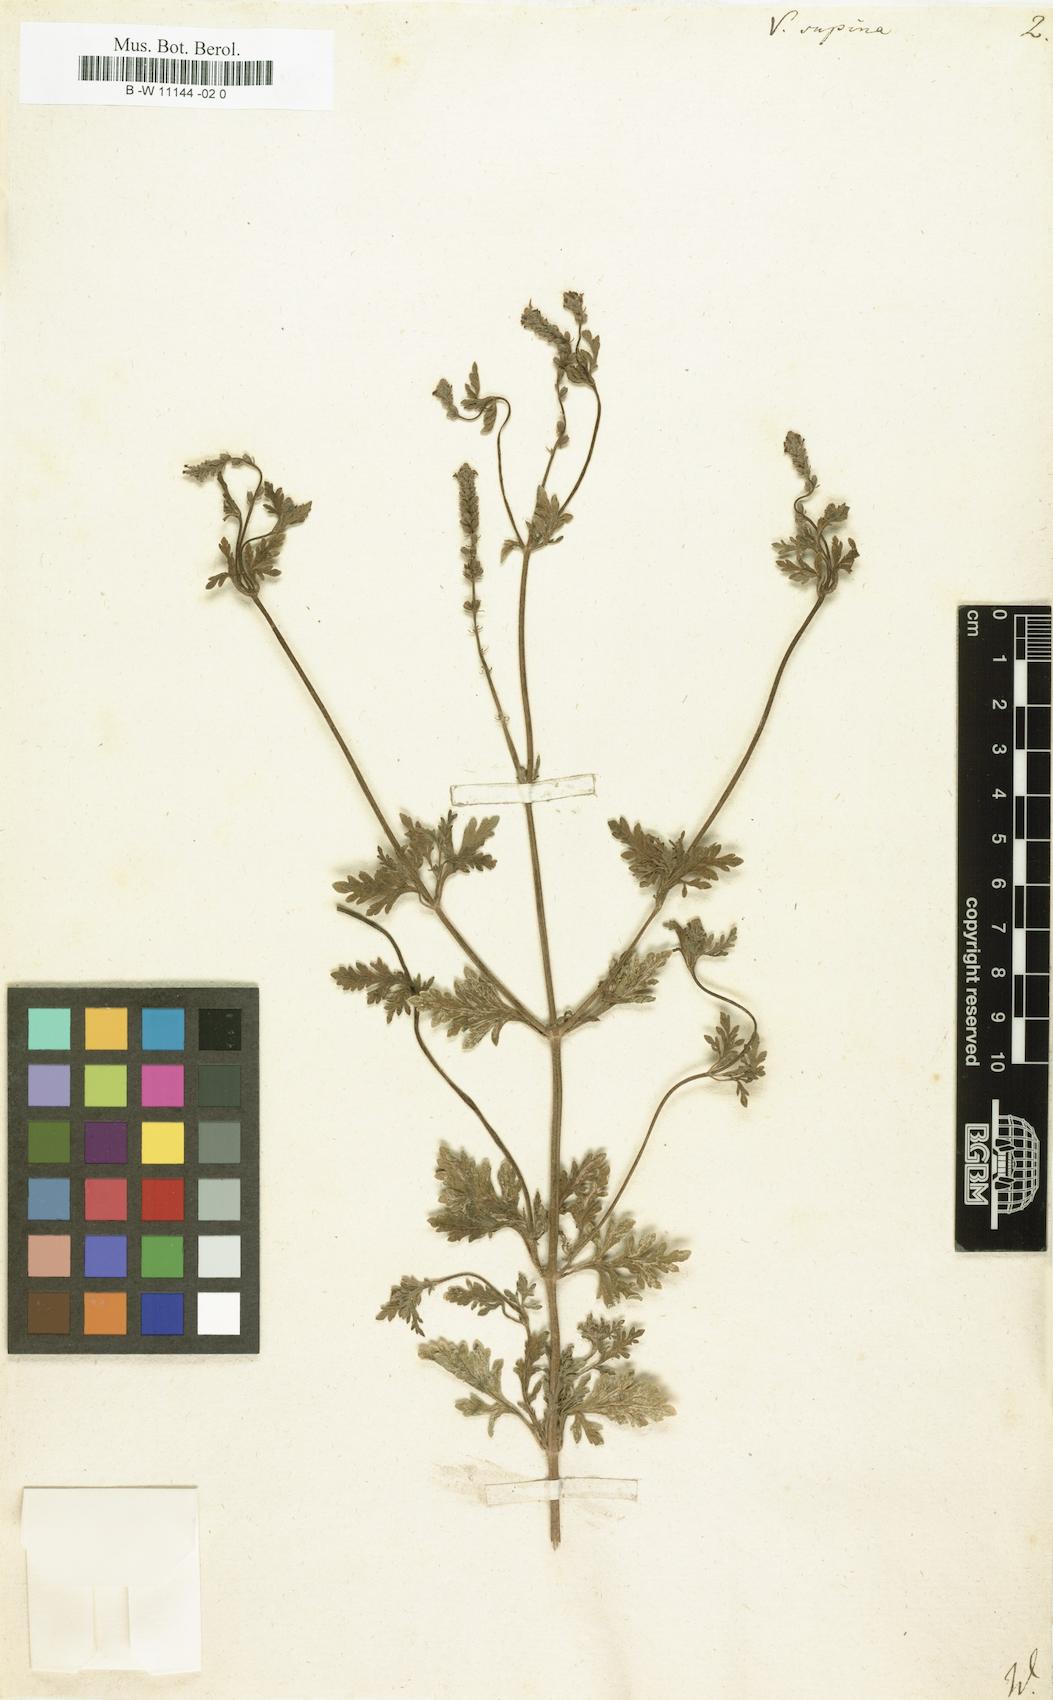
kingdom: Plantae
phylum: Tracheophyta
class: Magnoliopsida
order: Lamiales
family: Verbenaceae
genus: Verbena
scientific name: Verbena supina
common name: Trailing vervain
